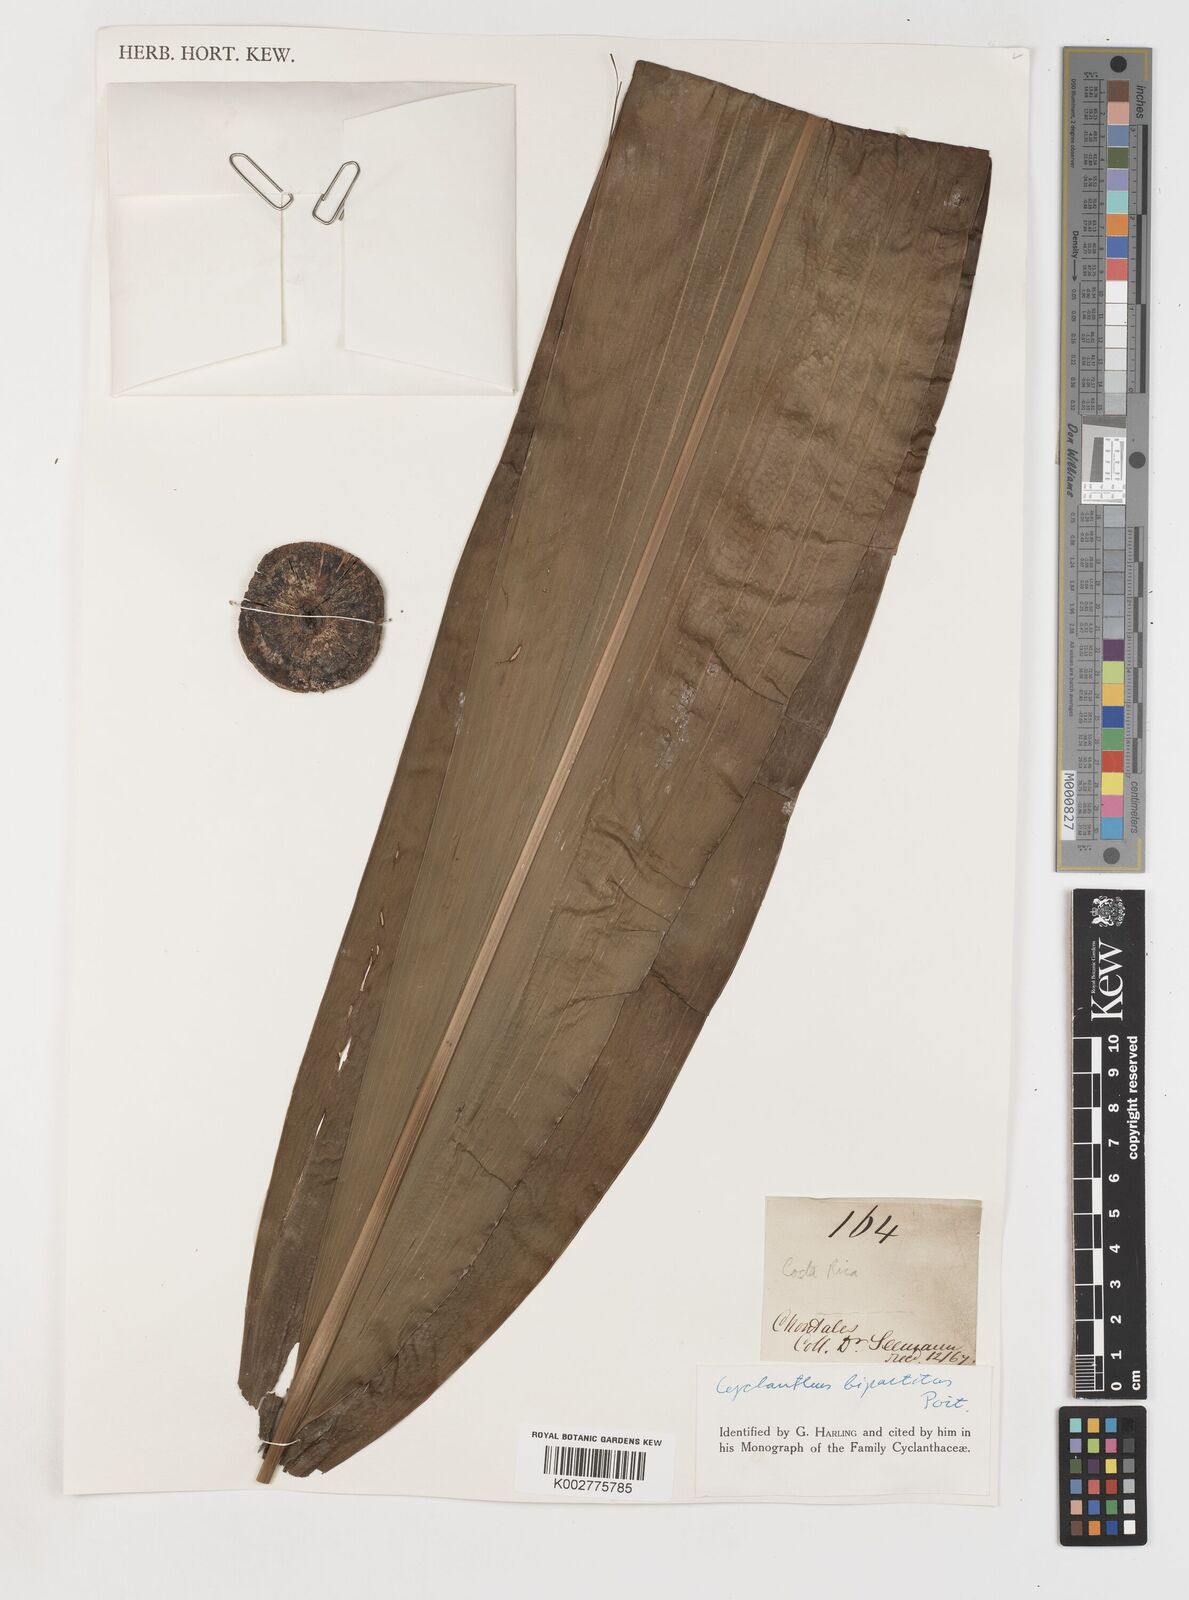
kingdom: Plantae
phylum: Tracheophyta
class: Liliopsida
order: Pandanales
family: Cyclanthaceae
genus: Cyclanthus
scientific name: Cyclanthus bipartitus
